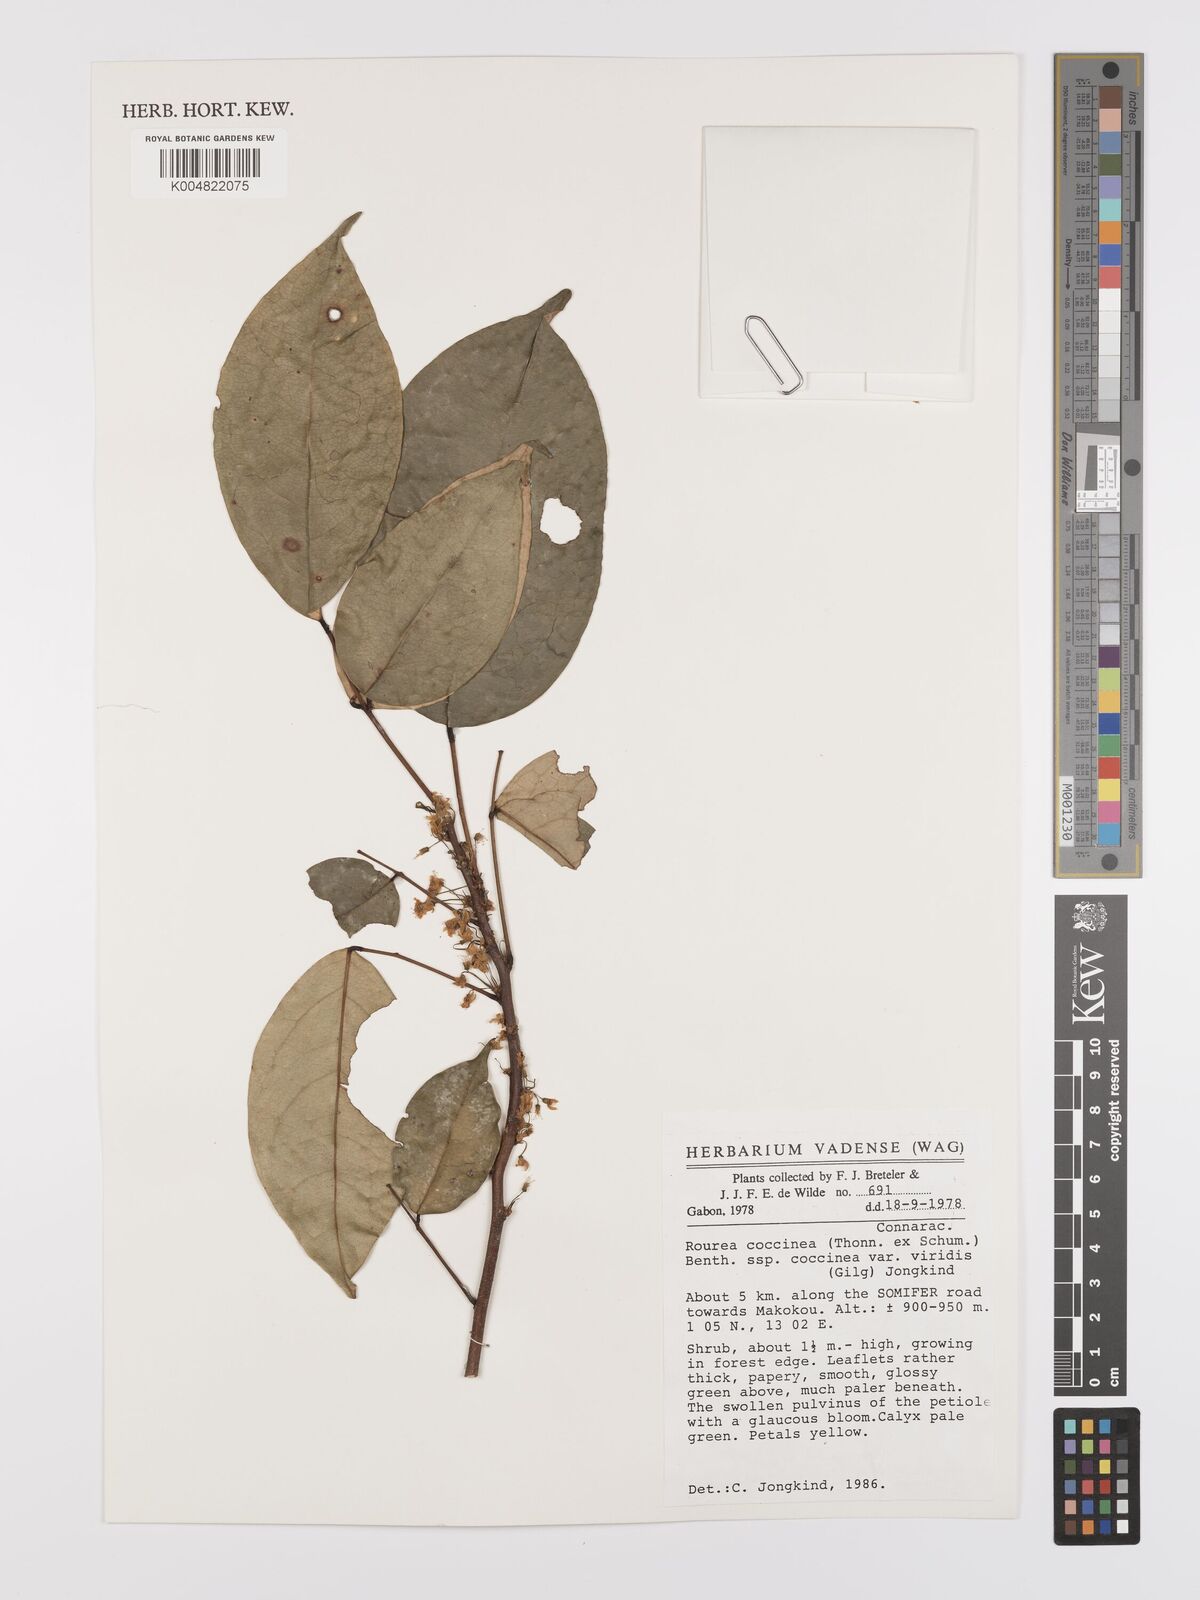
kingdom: Plantae
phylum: Tracheophyta
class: Magnoliopsida
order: Oxalidales
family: Connaraceae
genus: Rourea
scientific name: Rourea coccinea
